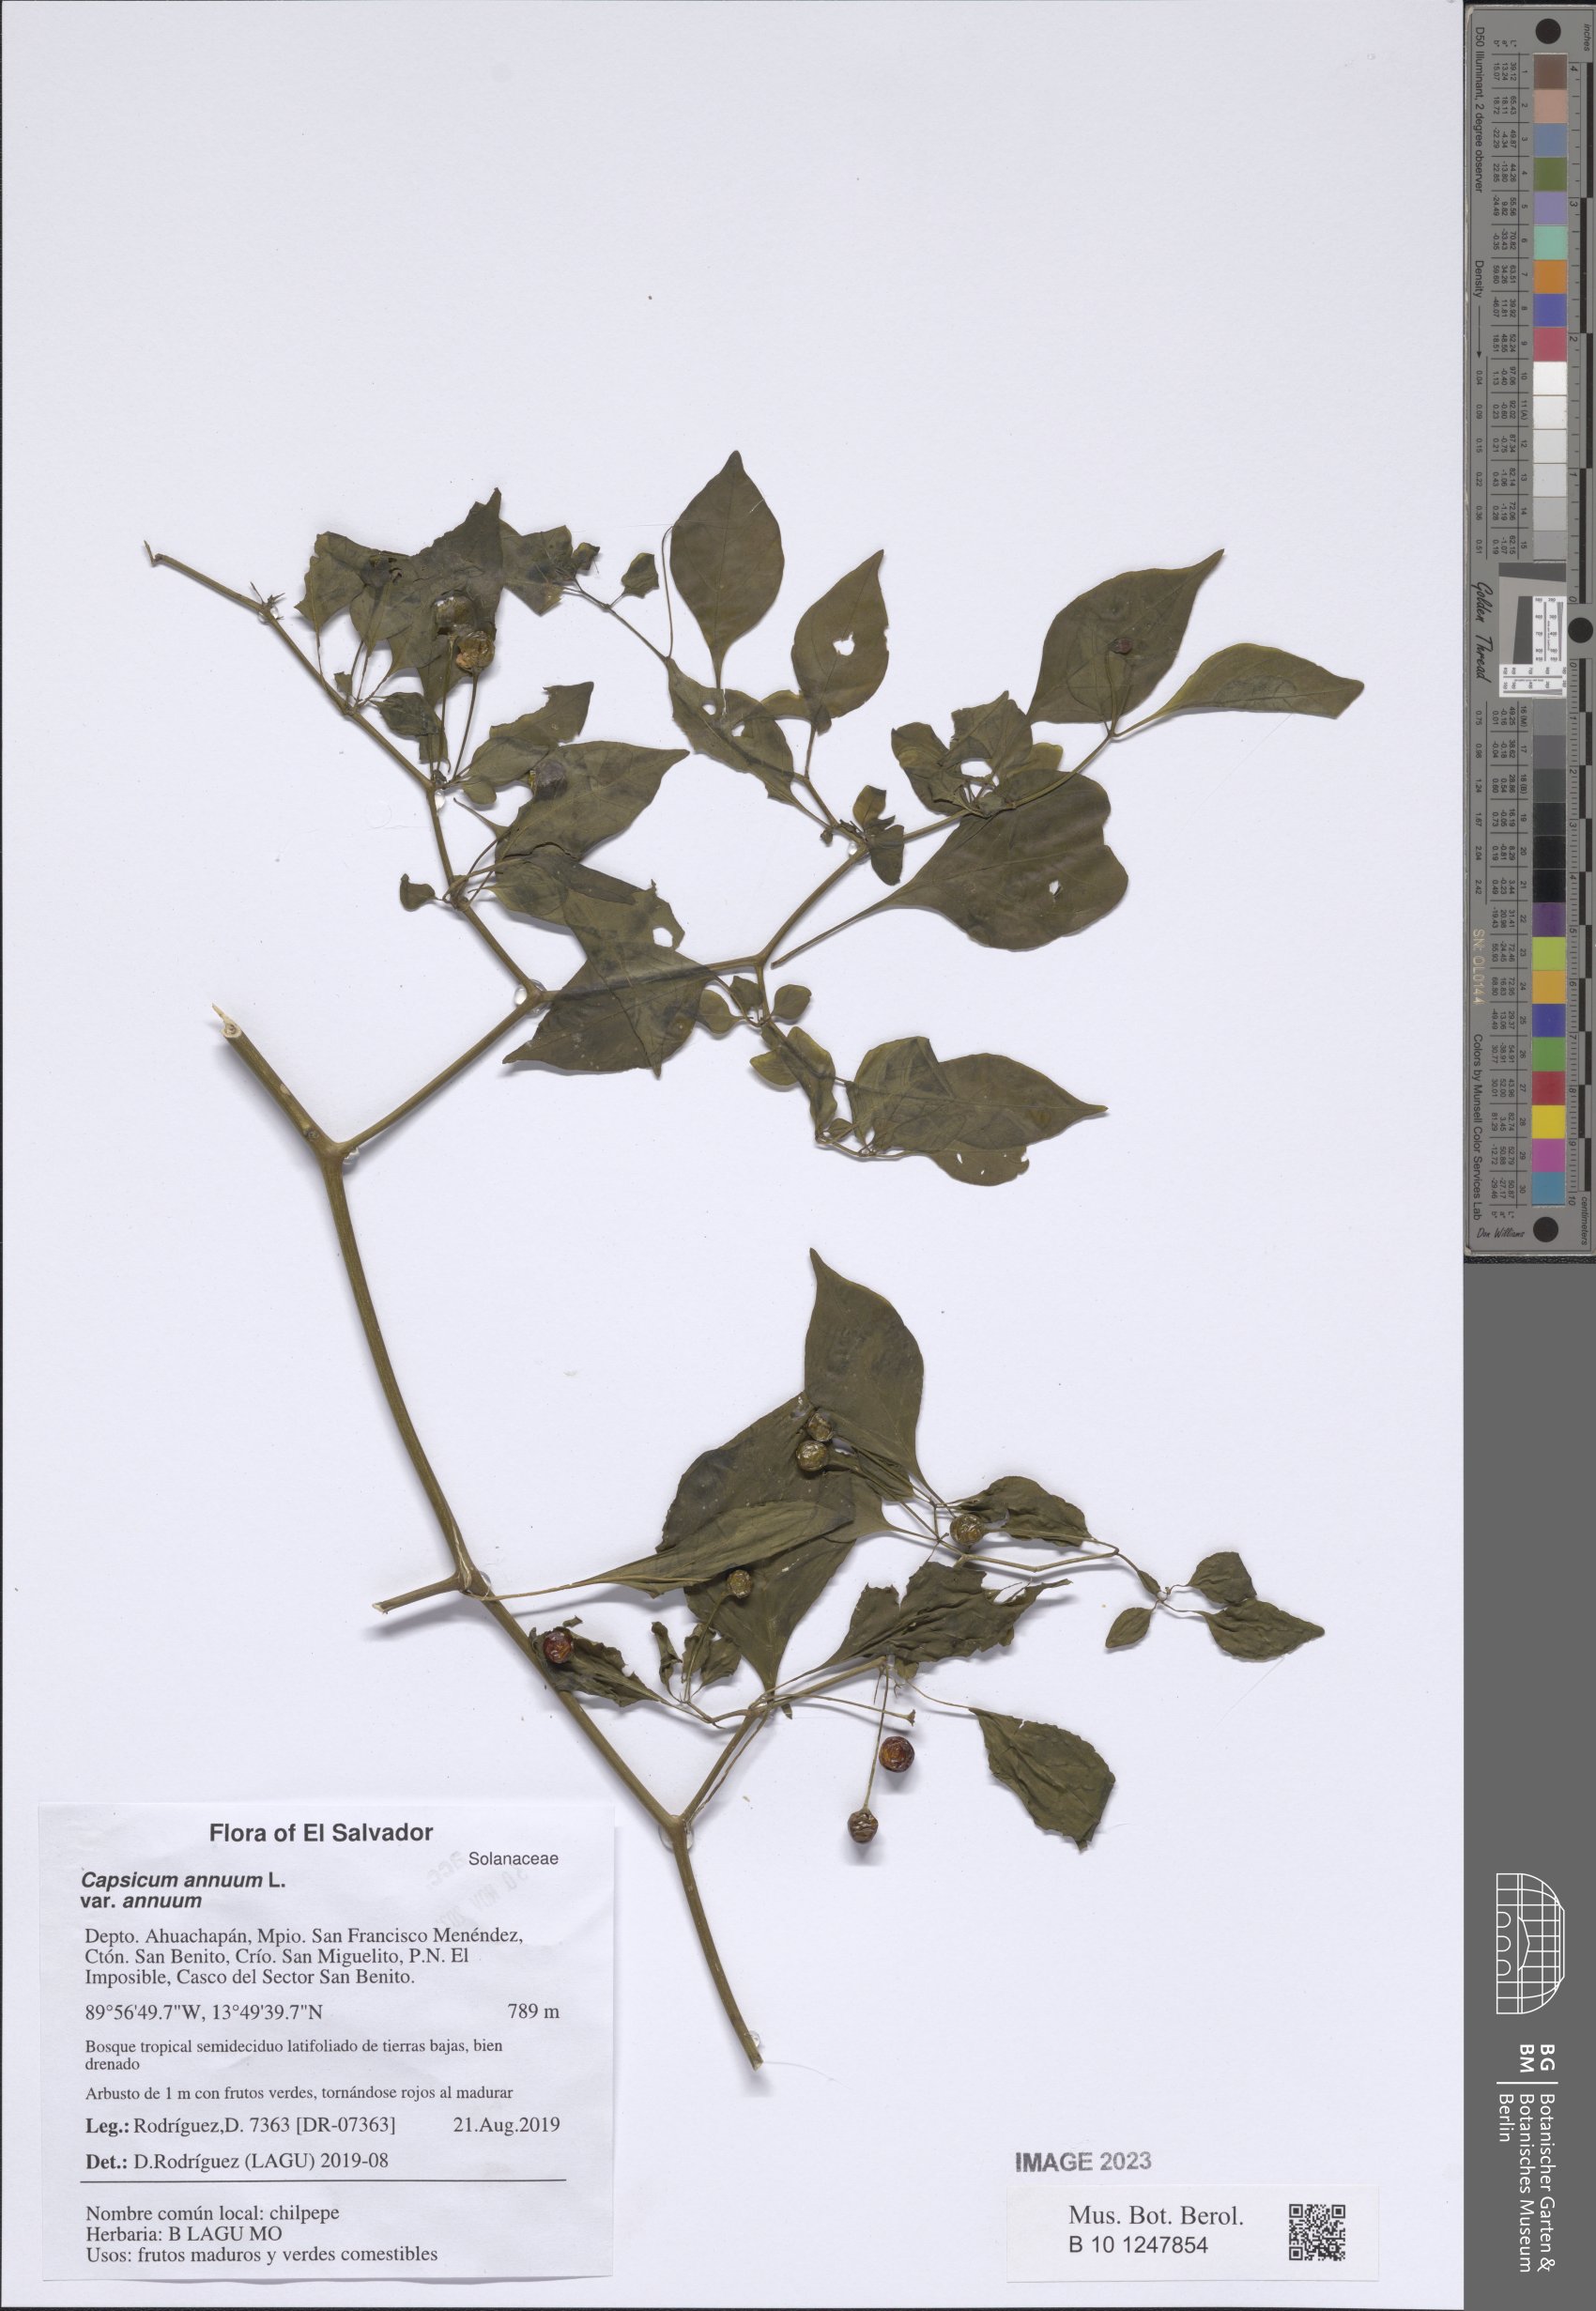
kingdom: Plantae
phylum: Tracheophyta
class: Magnoliopsida
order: Solanales
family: Solanaceae
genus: Capsicum
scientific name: Capsicum annuum
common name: Sweet pepper
